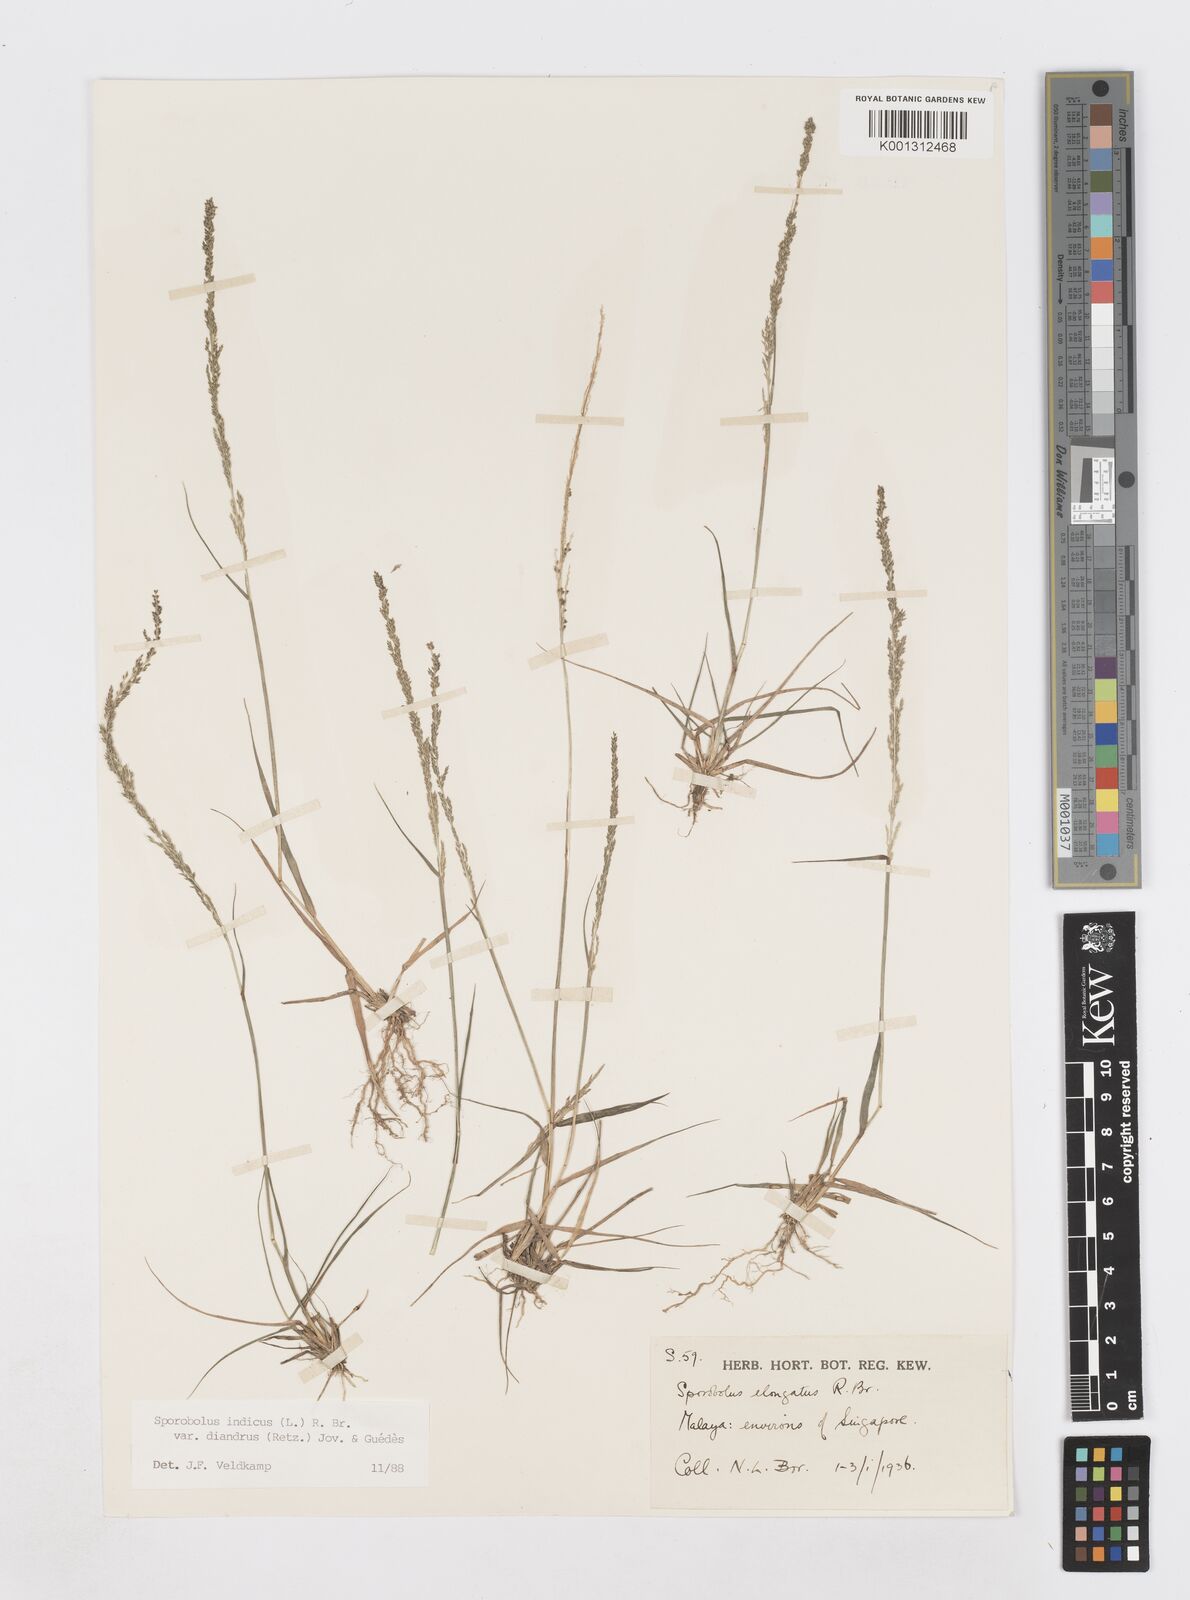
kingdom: Plantae
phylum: Tracheophyta
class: Liliopsida
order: Poales
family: Poaceae
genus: Sporobolus
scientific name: Sporobolus diandrus
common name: Tussock dropseed
